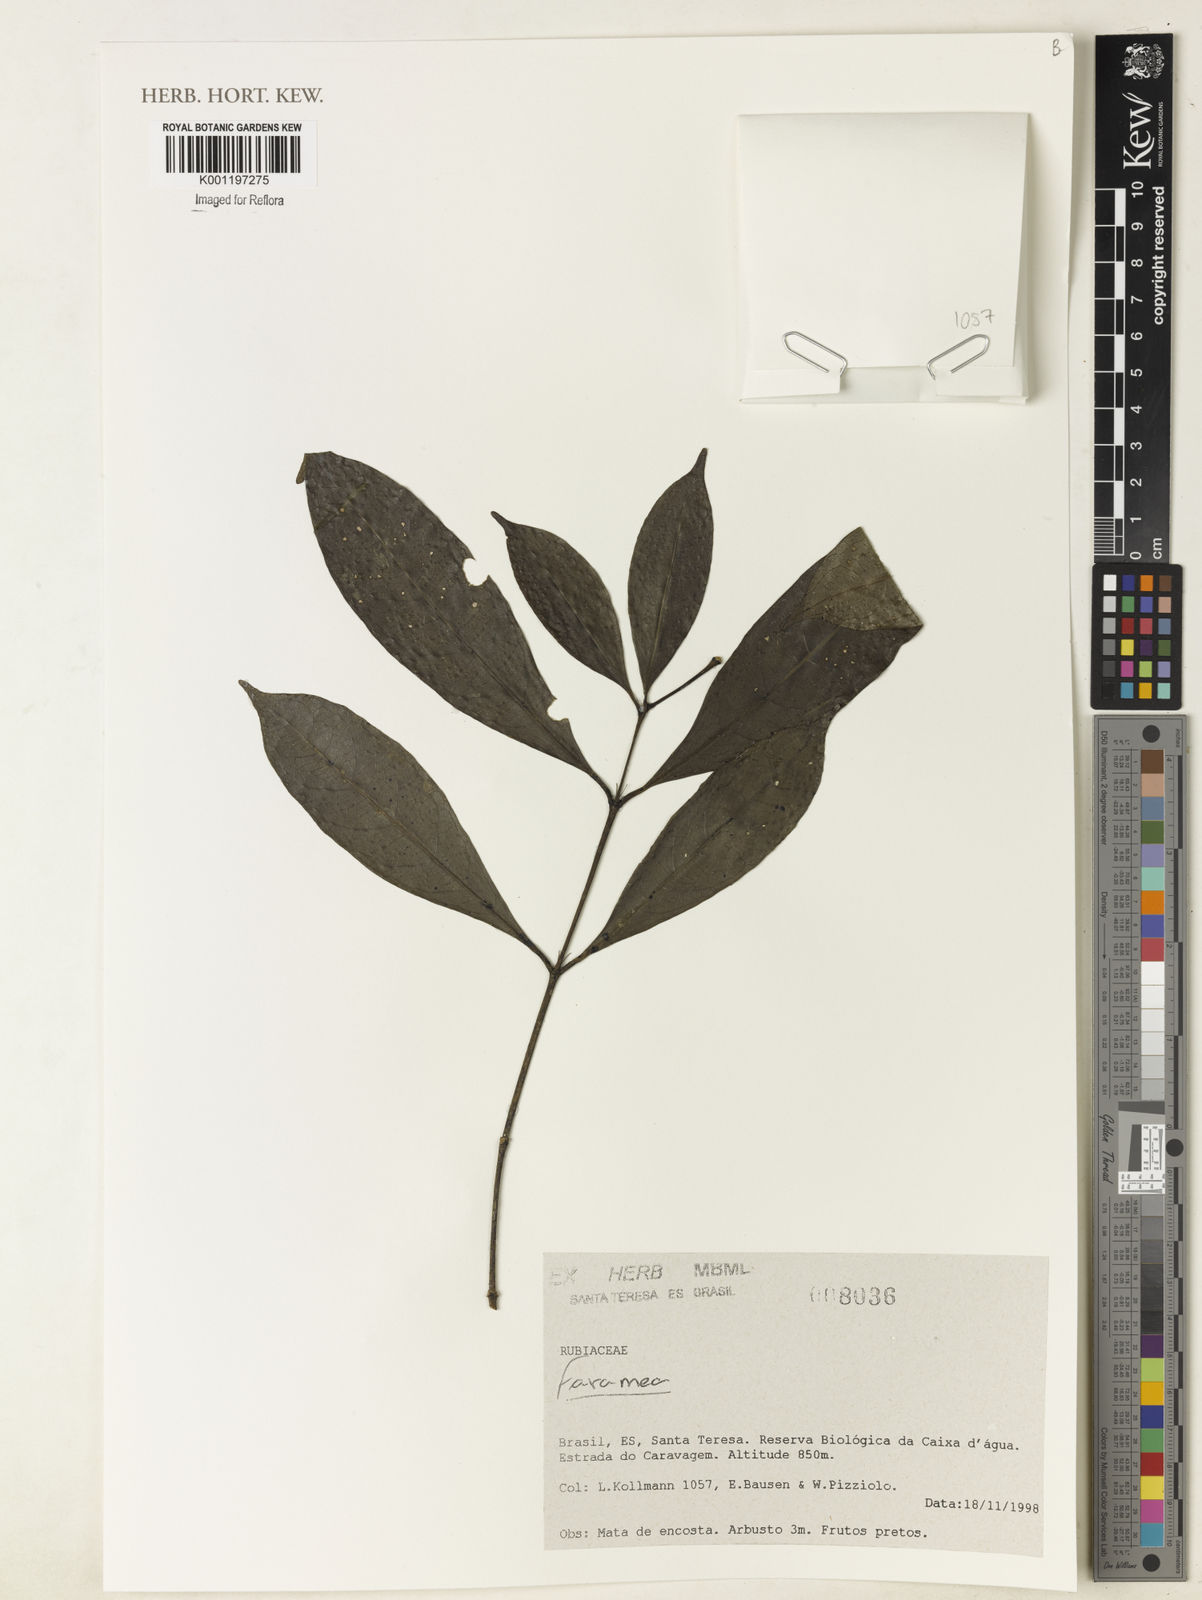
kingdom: Plantae
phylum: Tracheophyta
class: Magnoliopsida
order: Gentianales
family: Rubiaceae
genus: Faramea
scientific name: Faramea
